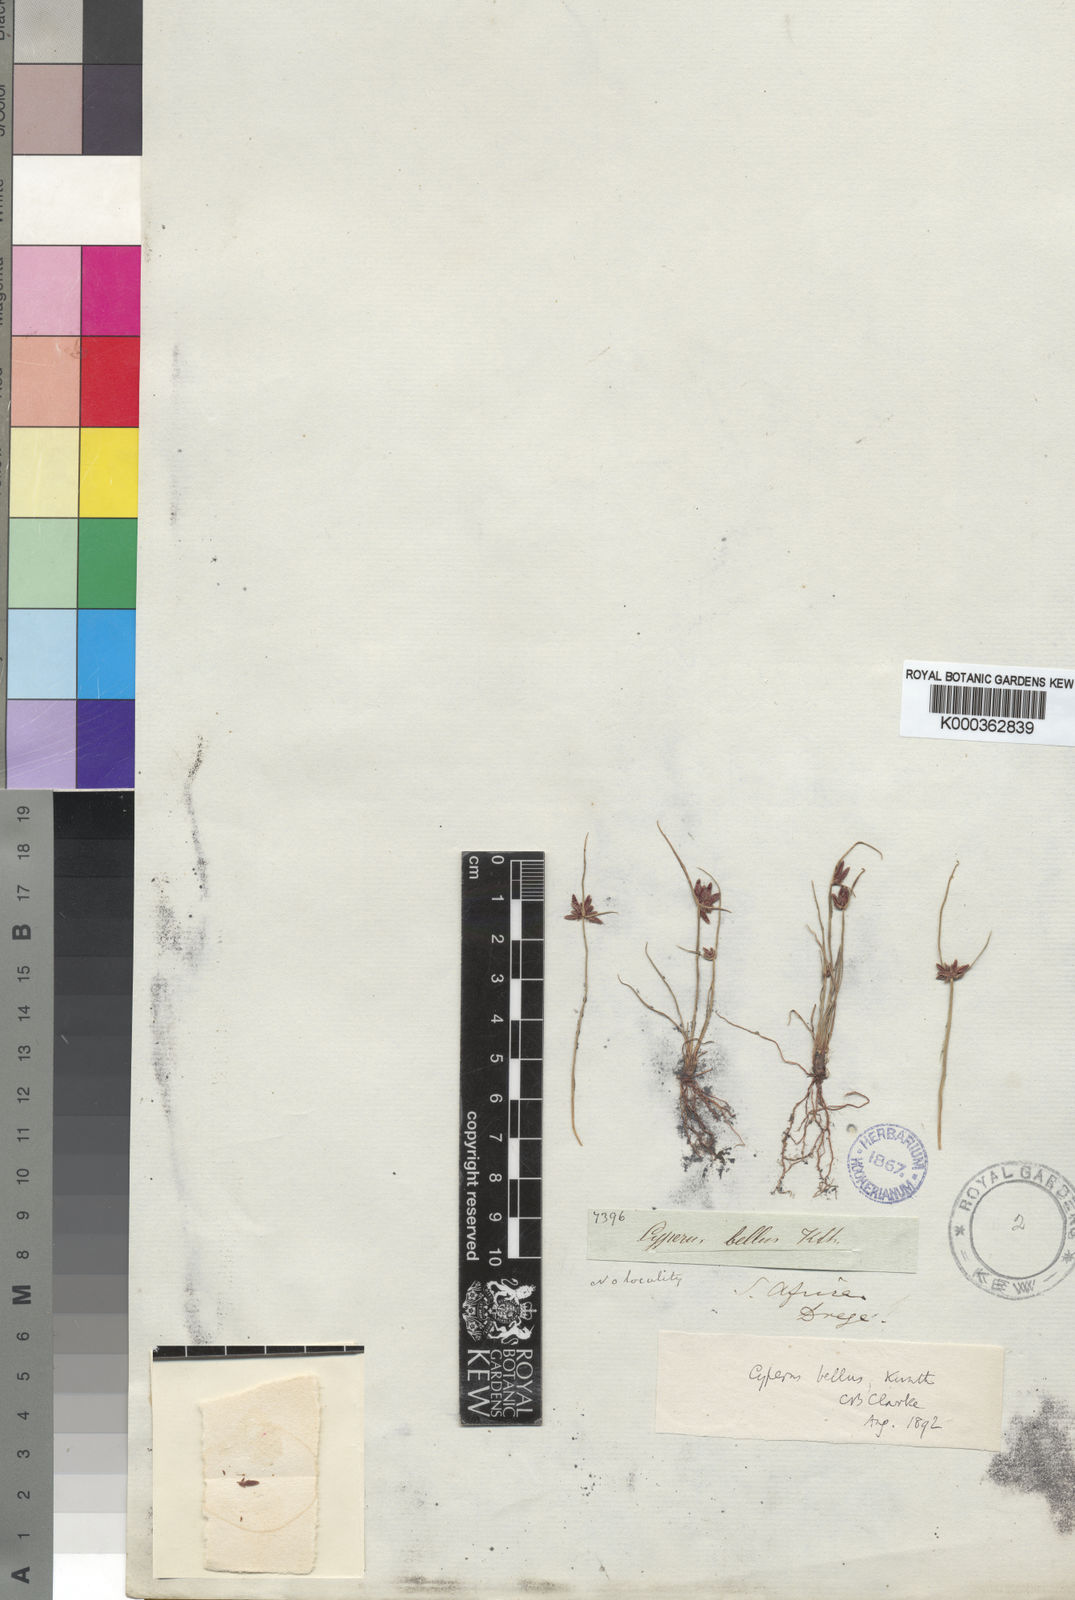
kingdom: Plantae
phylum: Tracheophyta
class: Liliopsida
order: Poales
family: Cyperaceae
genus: Cyperus
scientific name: Cyperus bellus
